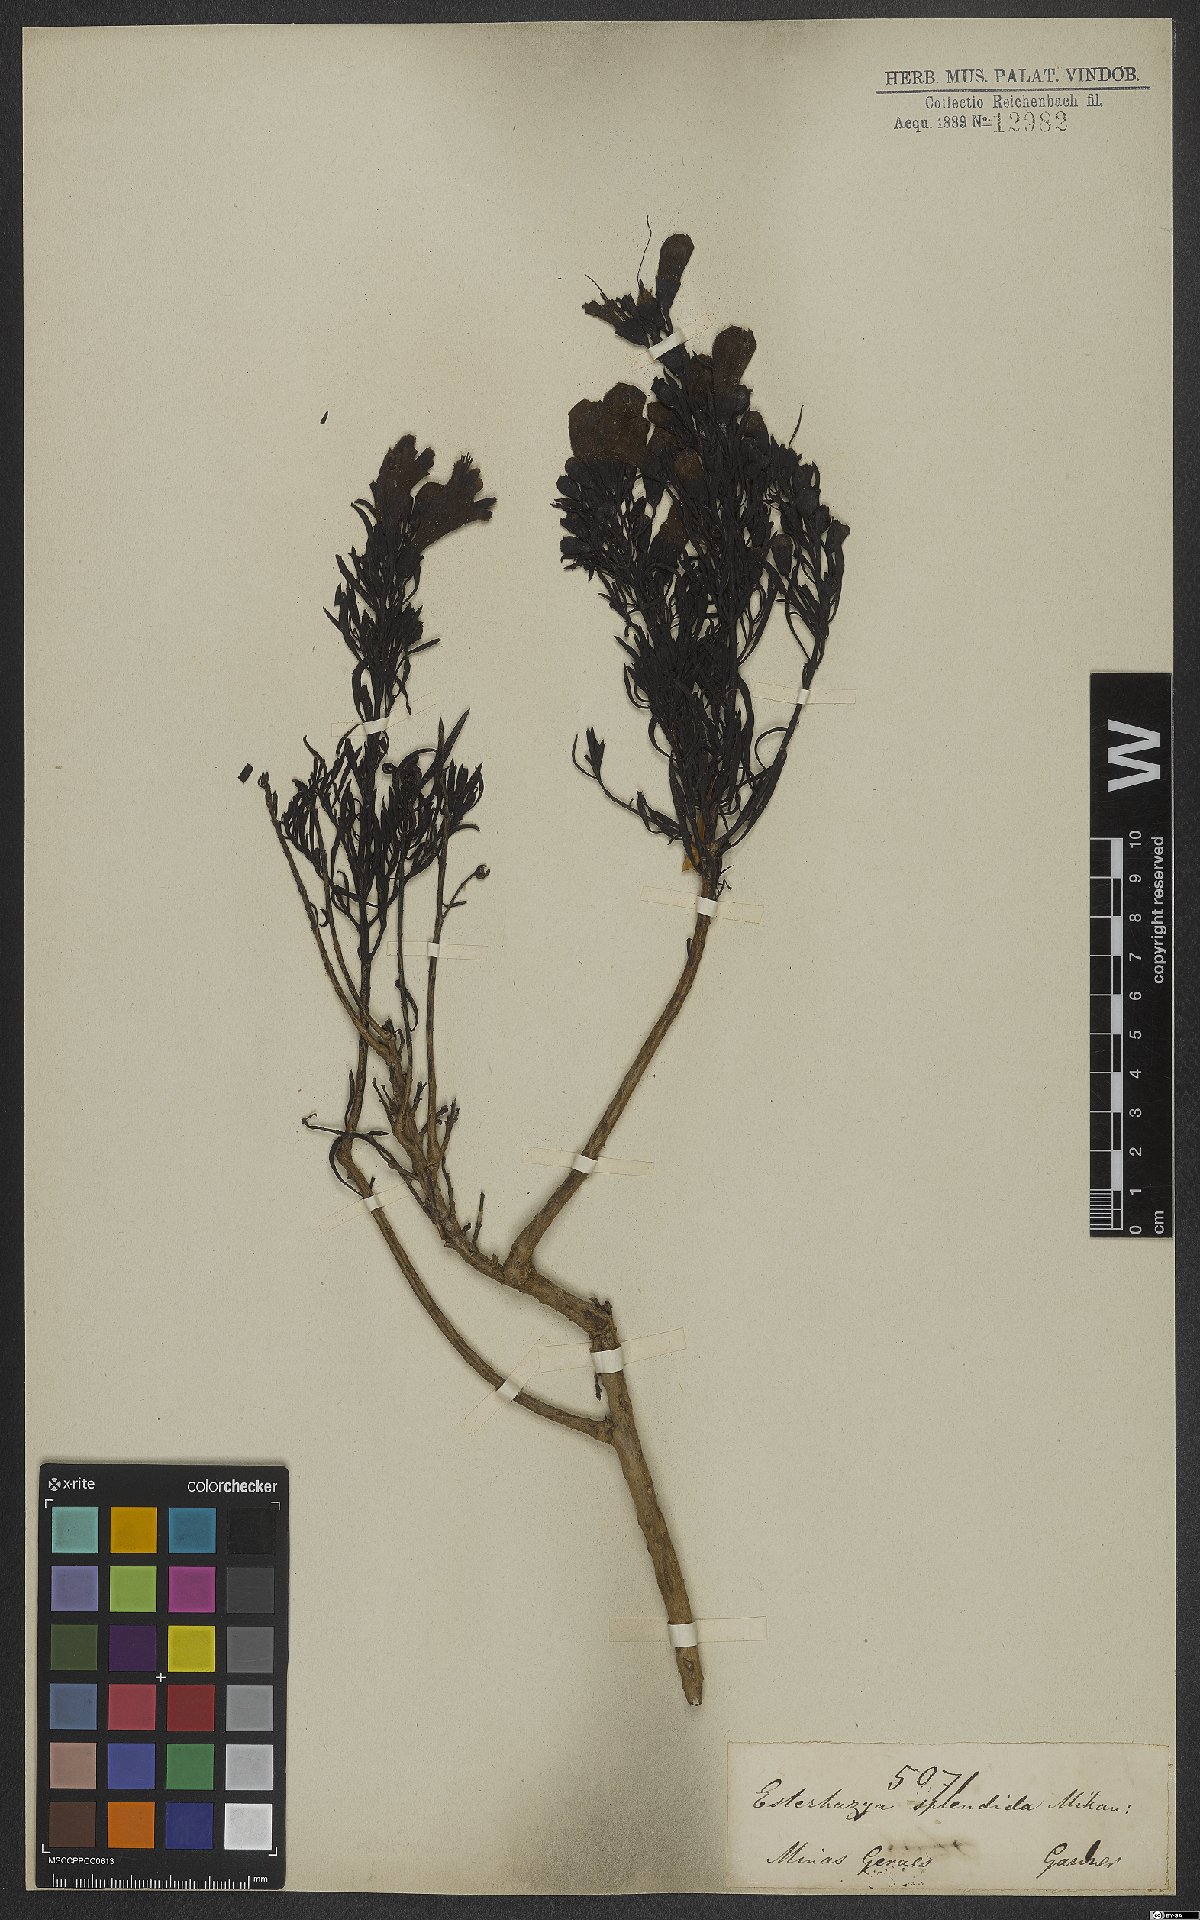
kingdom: Plantae
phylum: Tracheophyta
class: Magnoliopsida
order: Lamiales
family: Orobanchaceae
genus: Esterhazya
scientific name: Esterhazya splendida
